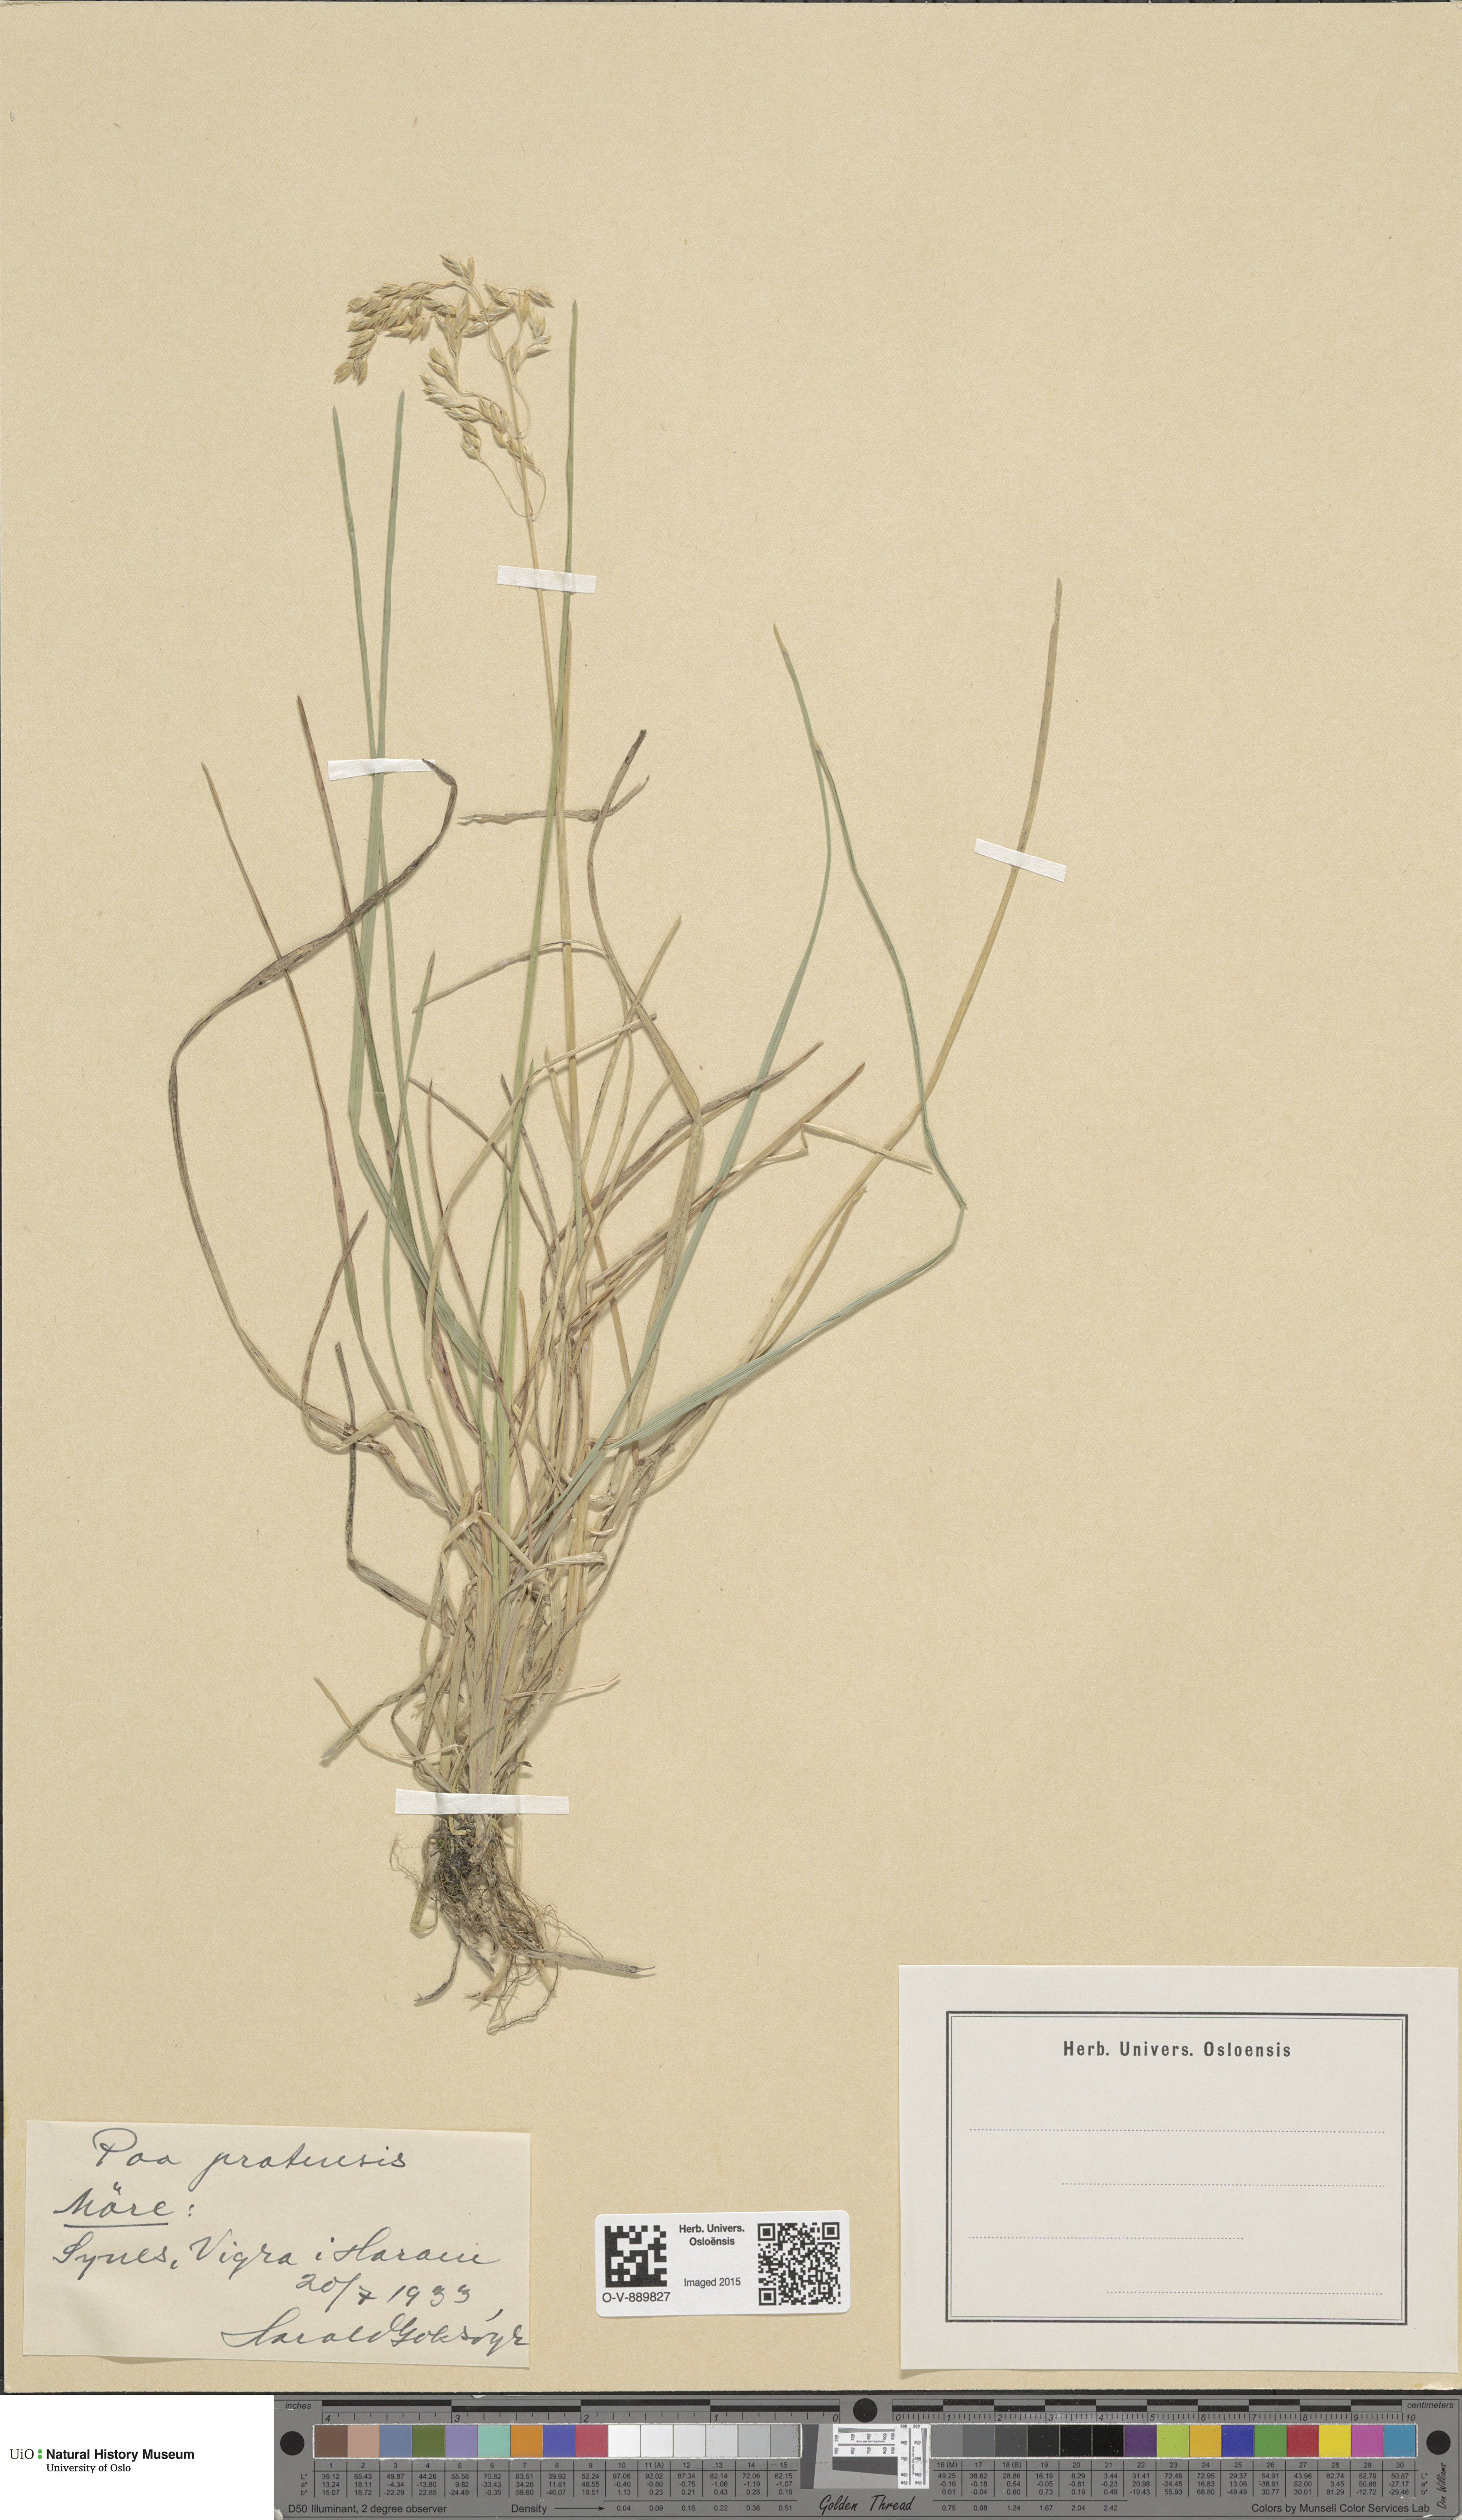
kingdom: Plantae
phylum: Tracheophyta
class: Liliopsida
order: Poales
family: Poaceae
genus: Poa
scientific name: Poa pratensis
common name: Kentucky bluegrass
